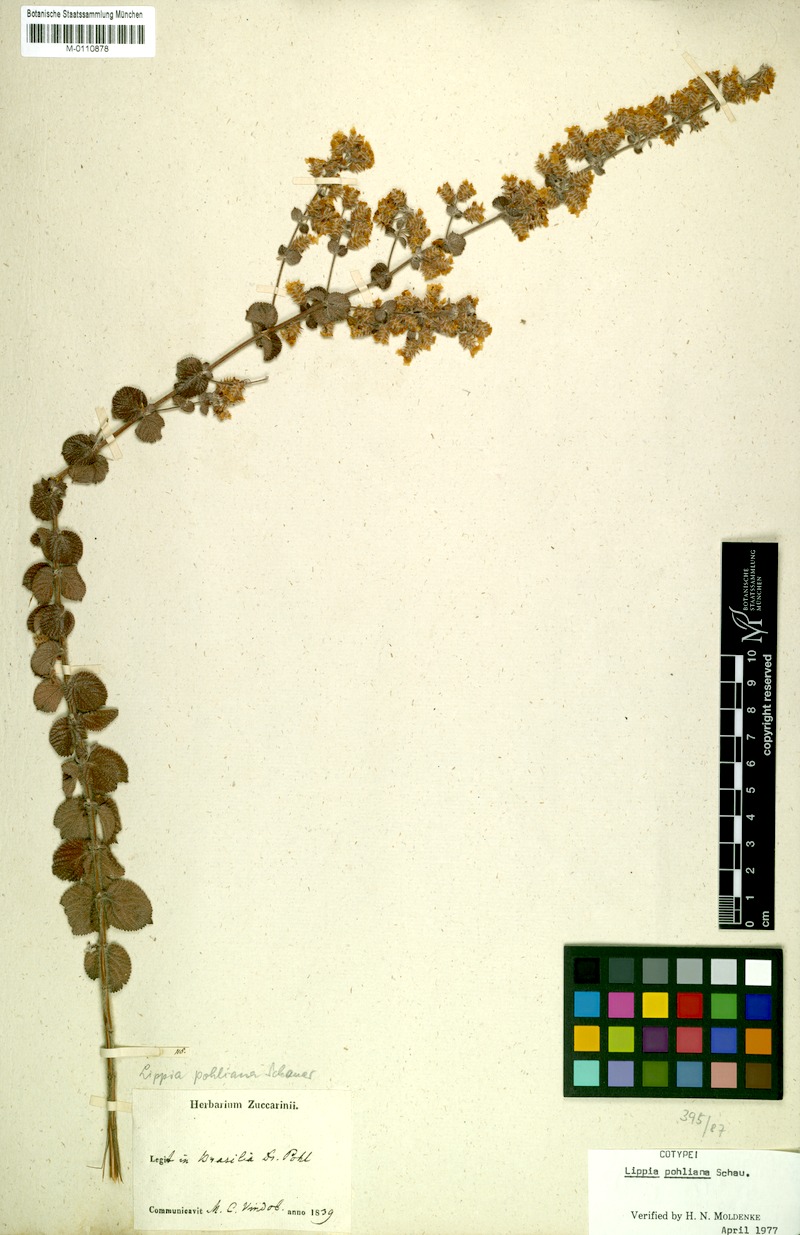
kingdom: Plantae
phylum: Tracheophyta
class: Magnoliopsida
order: Lamiales
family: Verbenaceae
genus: Lippia
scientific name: Lippia martiana
